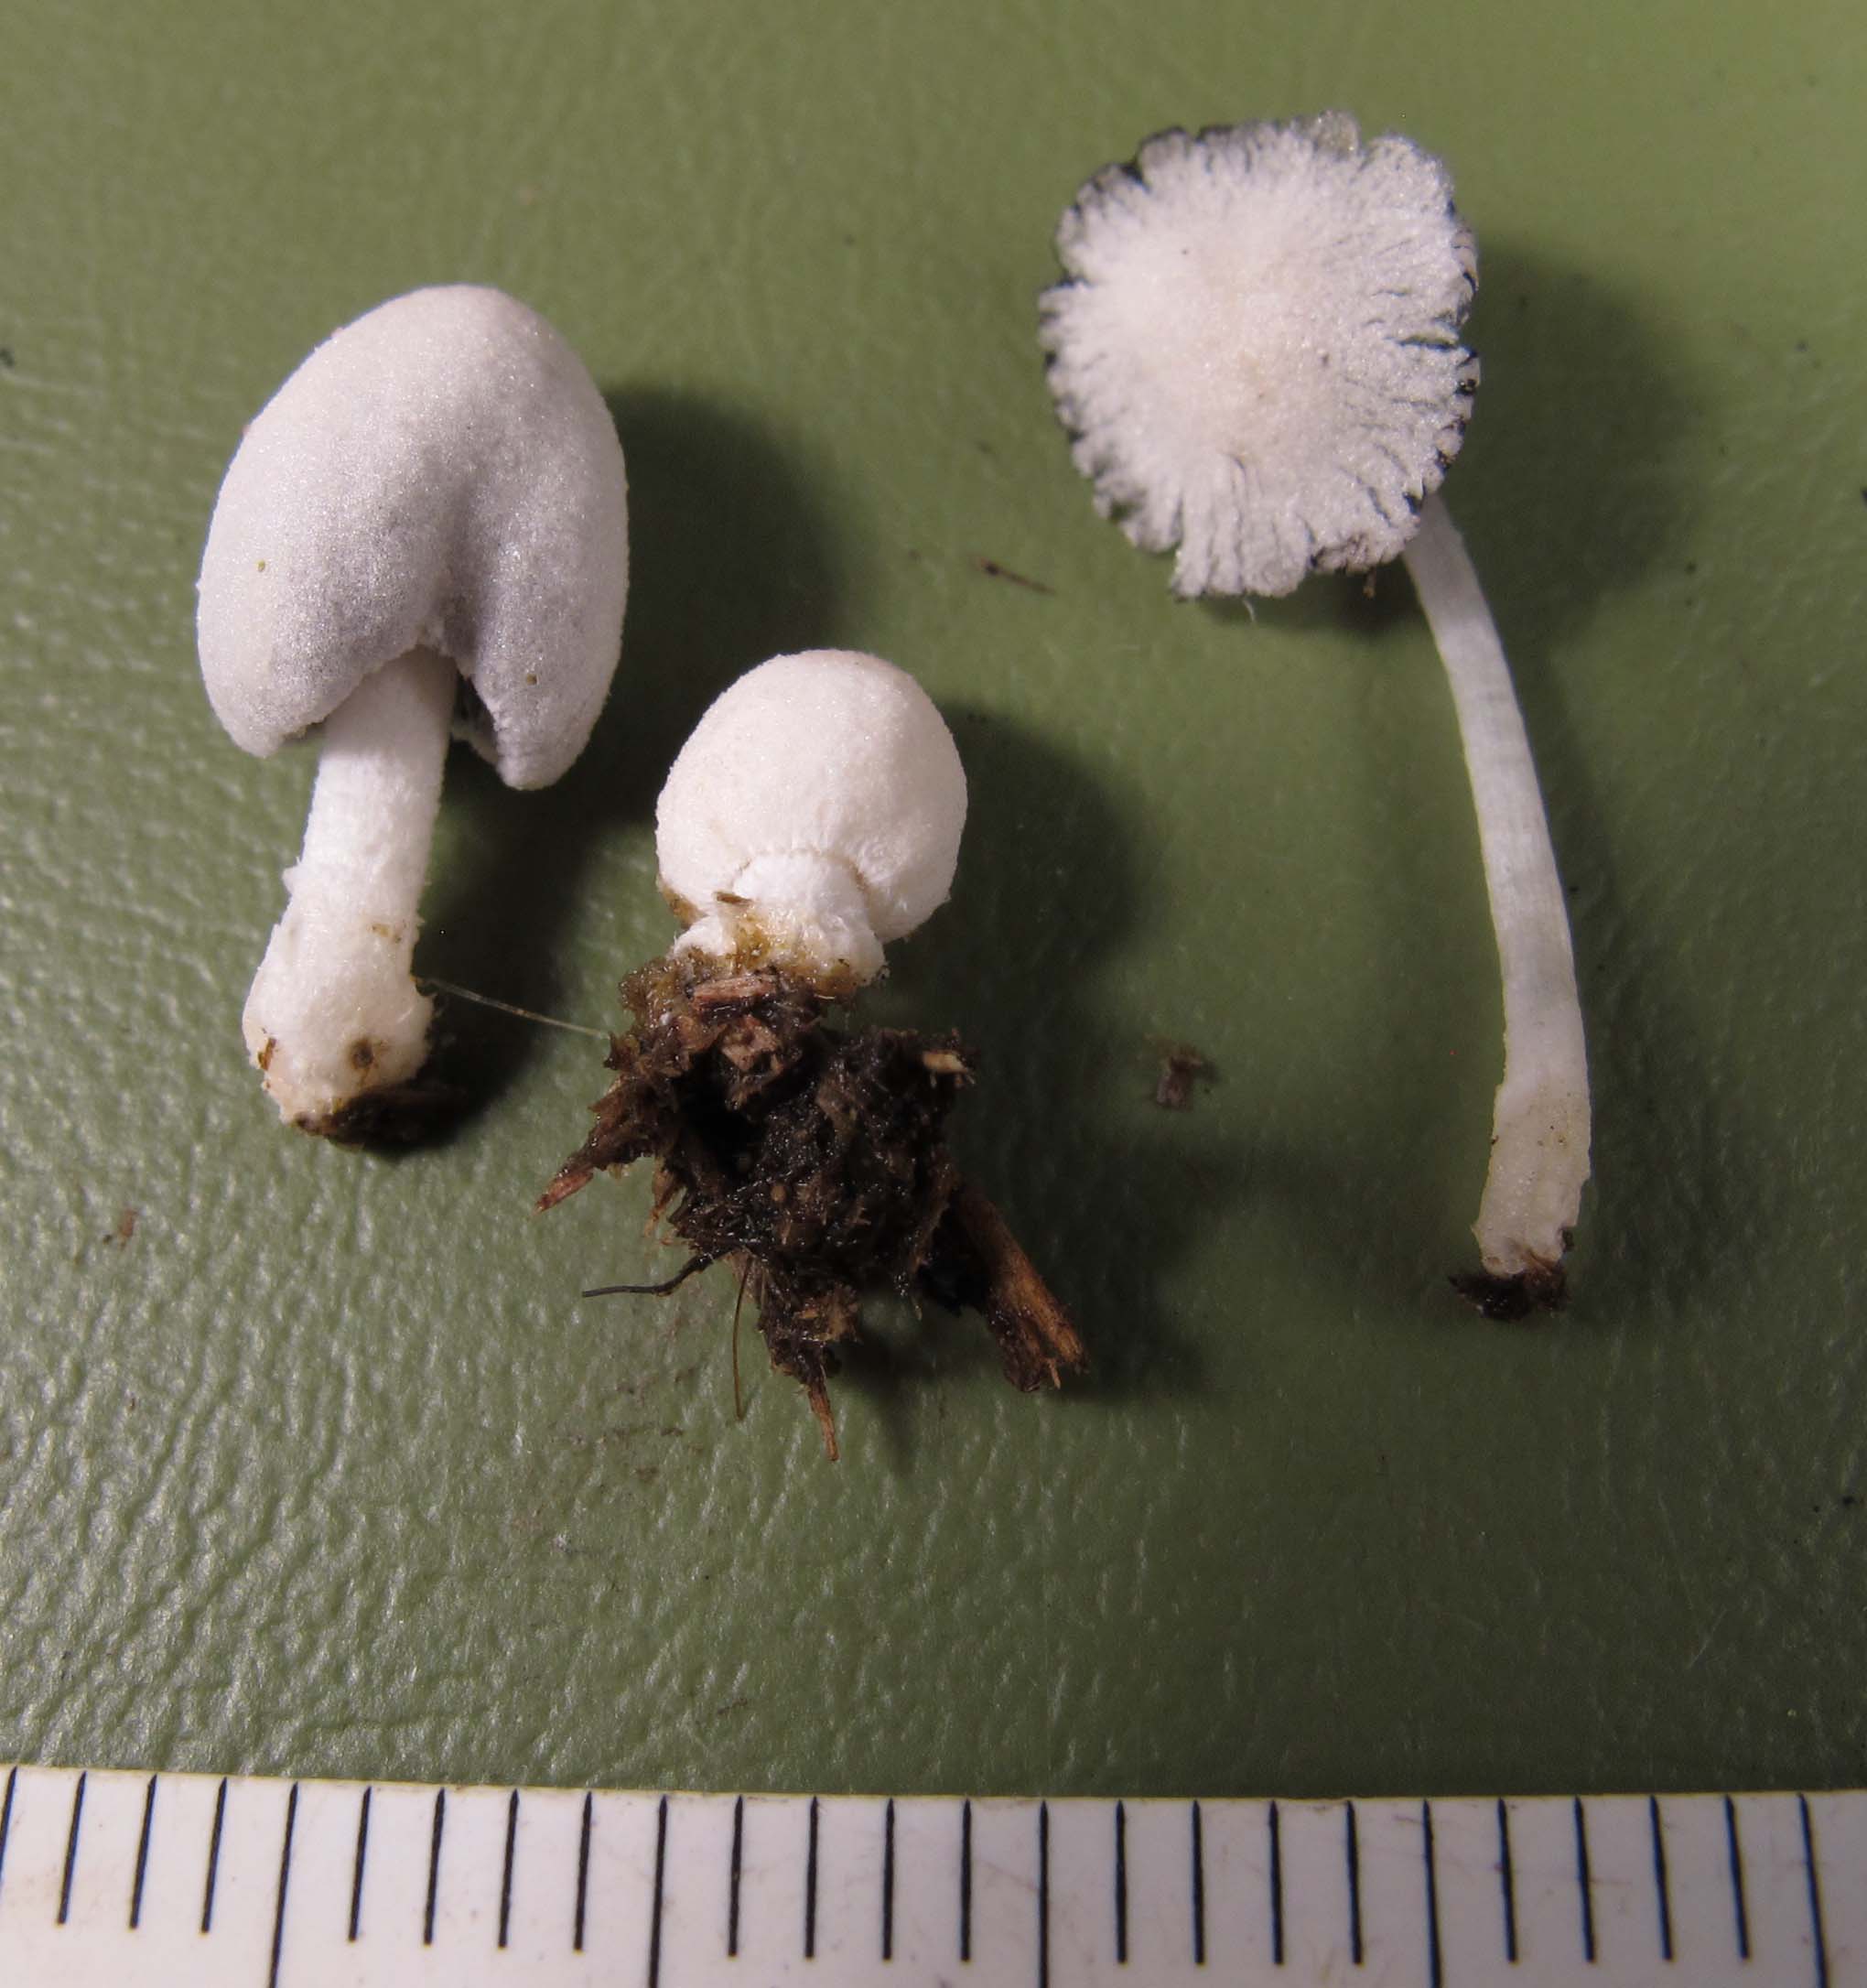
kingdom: Fungi
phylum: Basidiomycota
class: Agaricomycetes
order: Agaricales
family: Psathyrellaceae
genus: Coprinopsis
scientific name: Coprinopsis nivea
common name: snehvid blækhat
